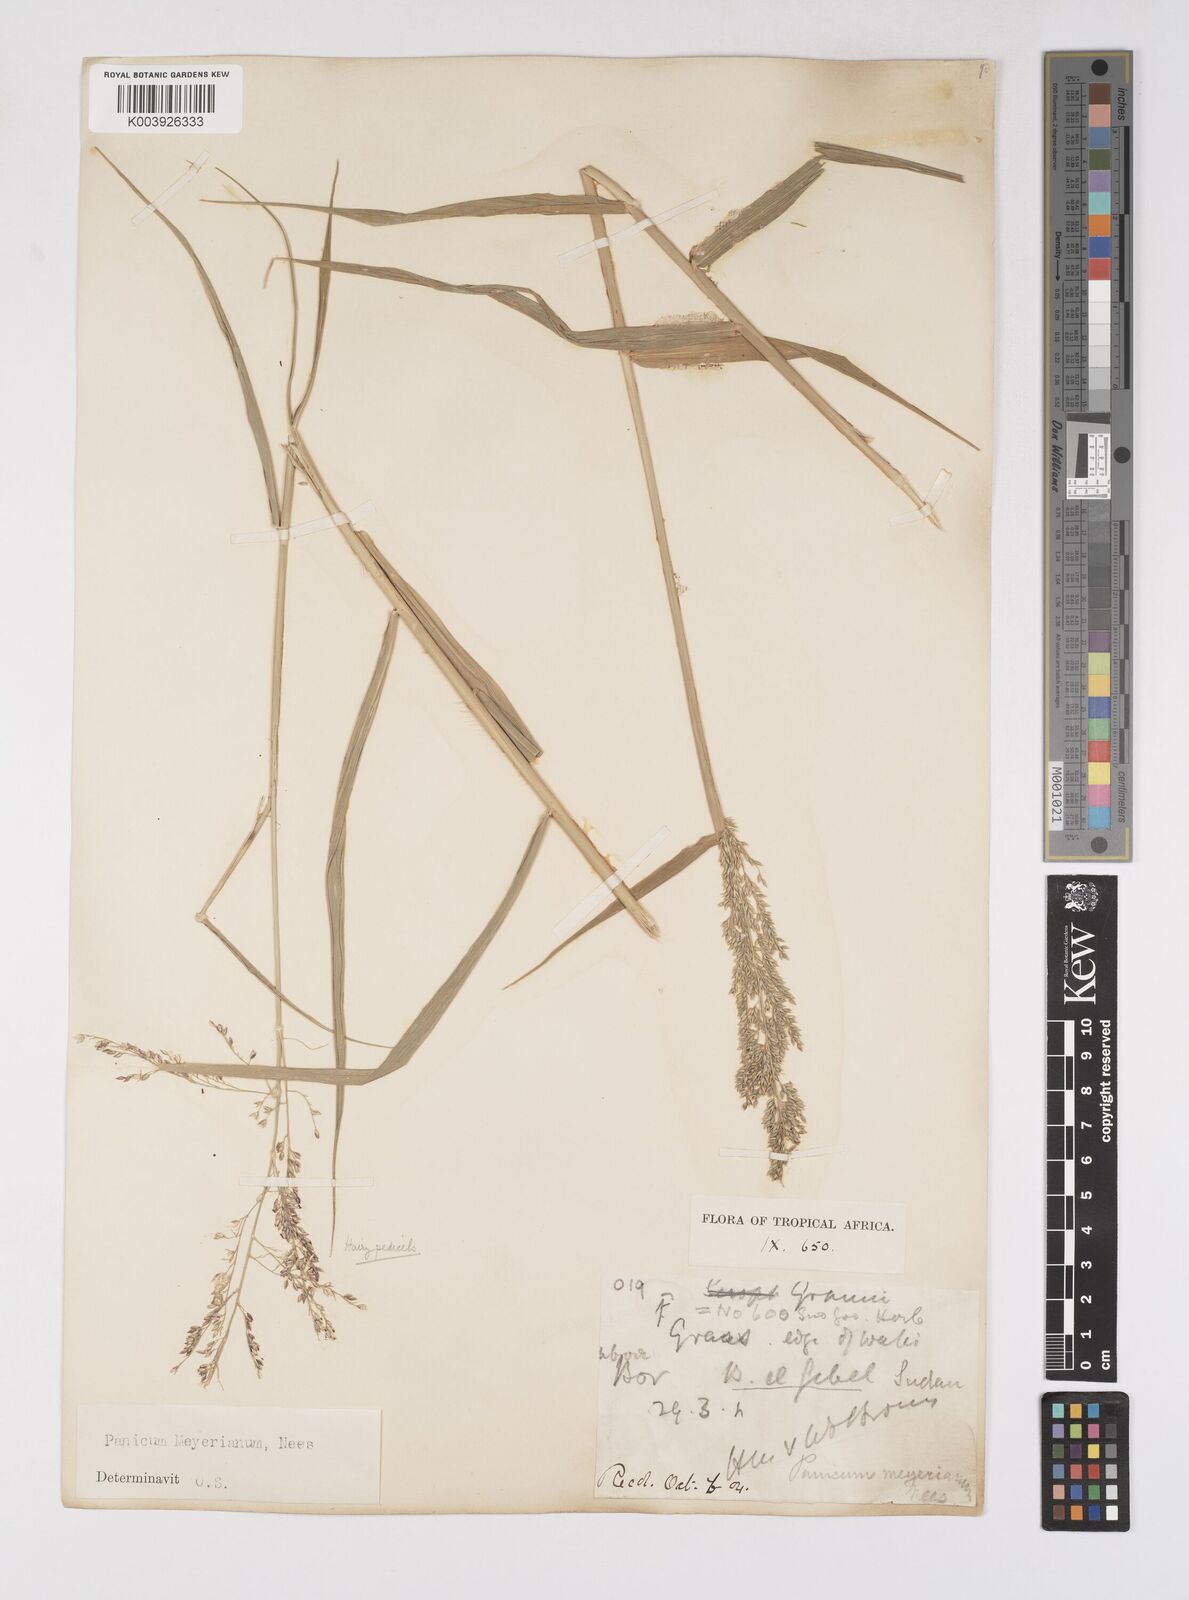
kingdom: Plantae
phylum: Tracheophyta
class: Liliopsida
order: Poales
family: Poaceae
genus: Eriochloa
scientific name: Eriochloa meyeriana
